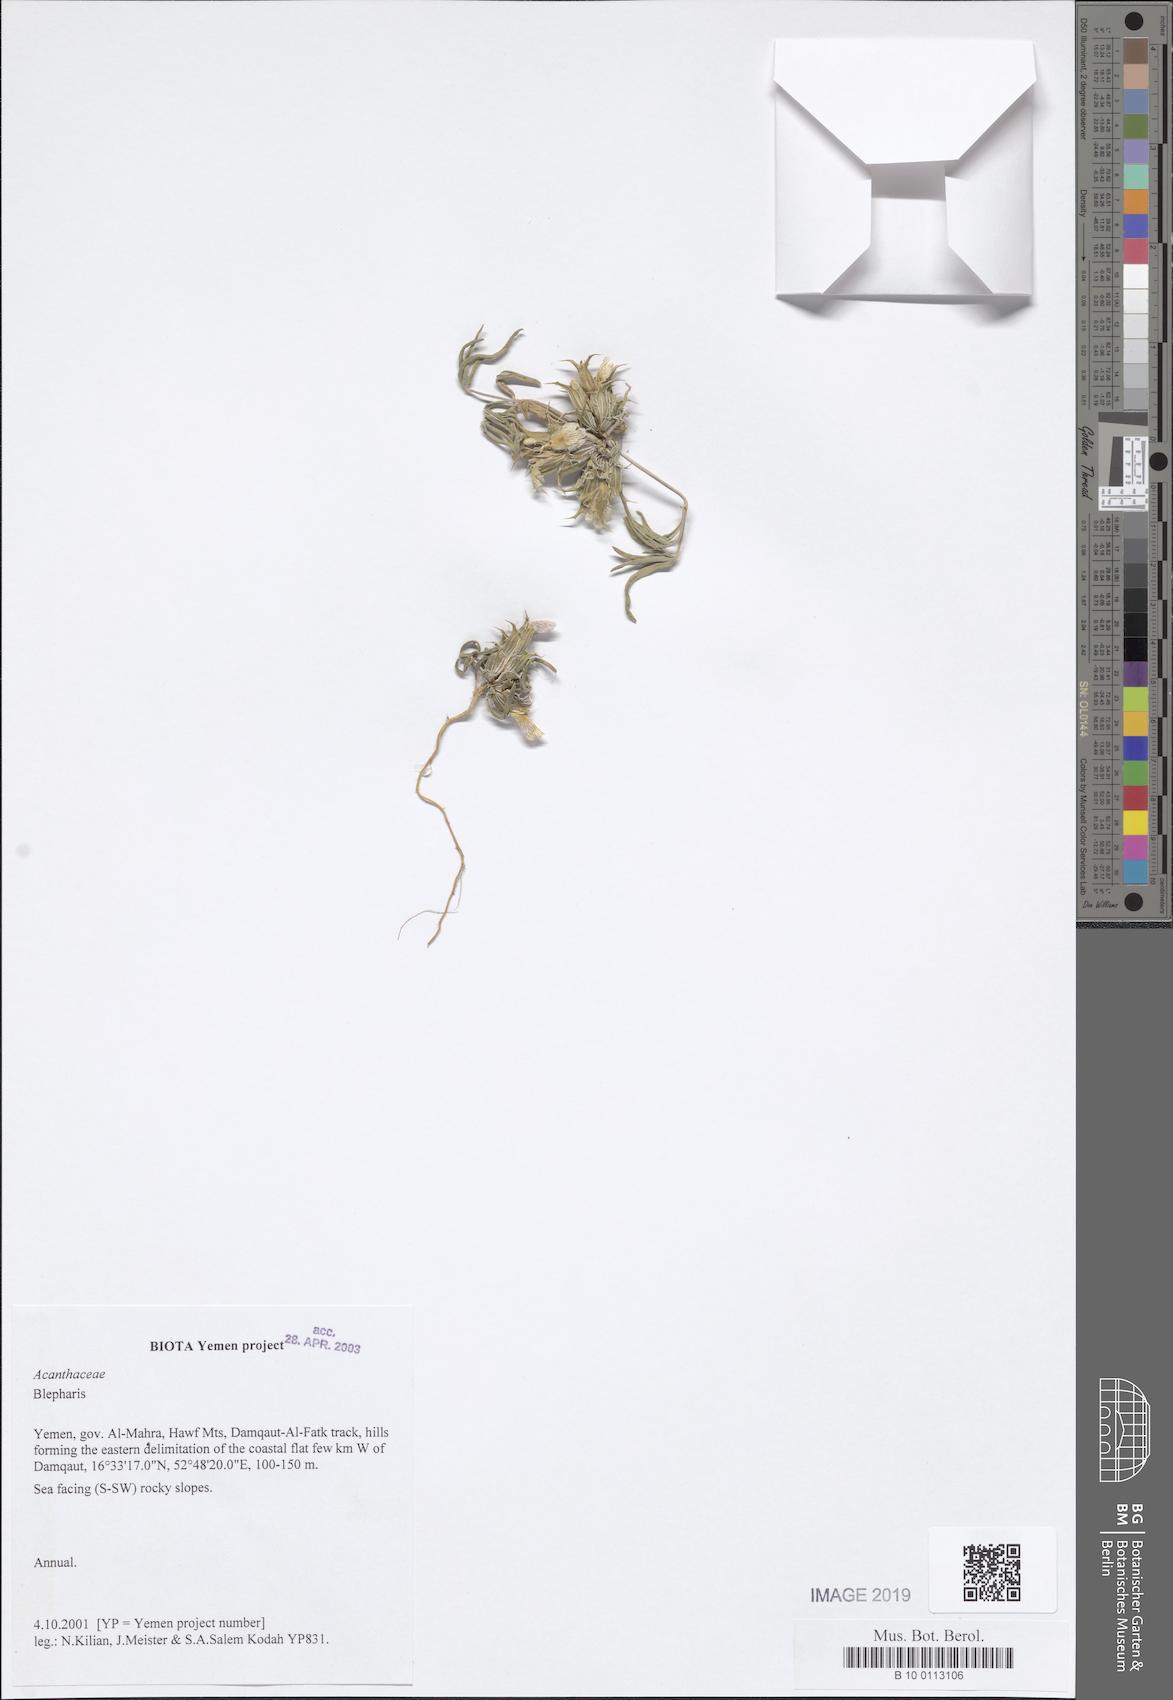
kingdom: Plantae
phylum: Tracheophyta
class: Magnoliopsida
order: Lamiales
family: Acanthaceae
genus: Blepharis
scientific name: Blepharis
